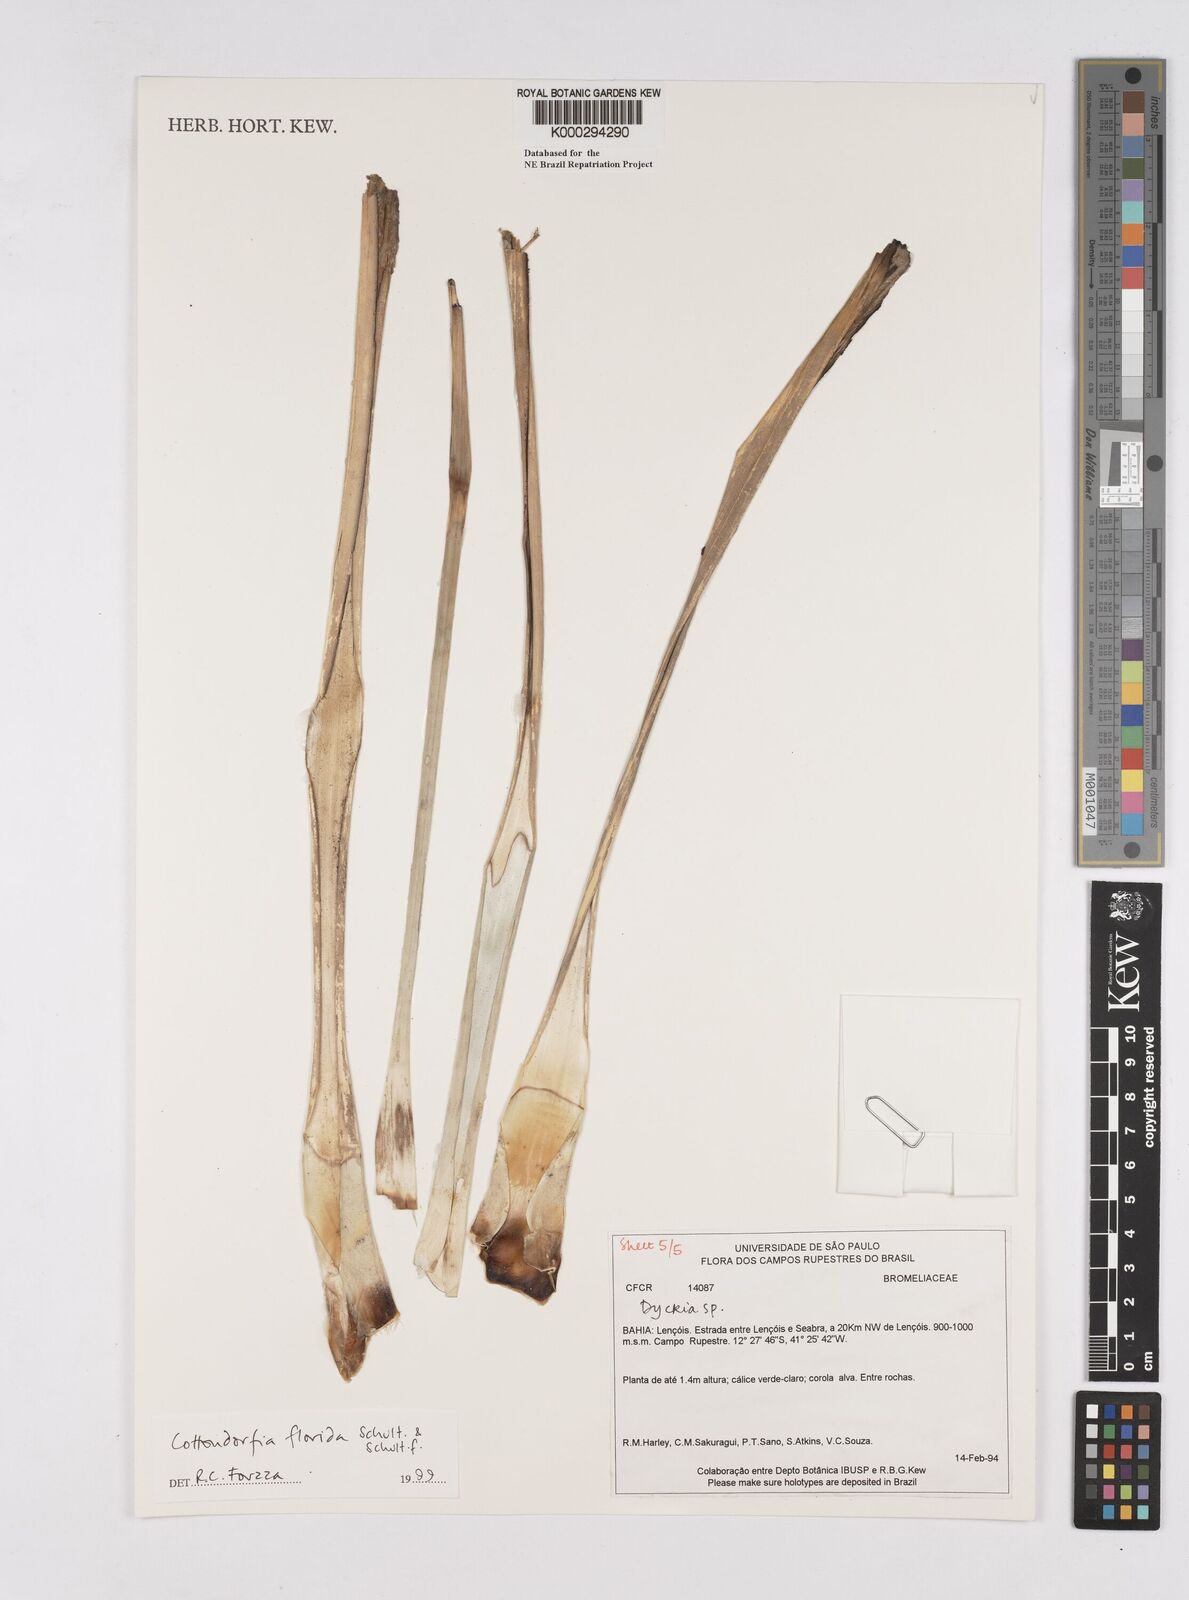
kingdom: Plantae
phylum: Tracheophyta
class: Liliopsida
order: Poales
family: Bromeliaceae
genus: Cottendorfia
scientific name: Cottendorfia florida
